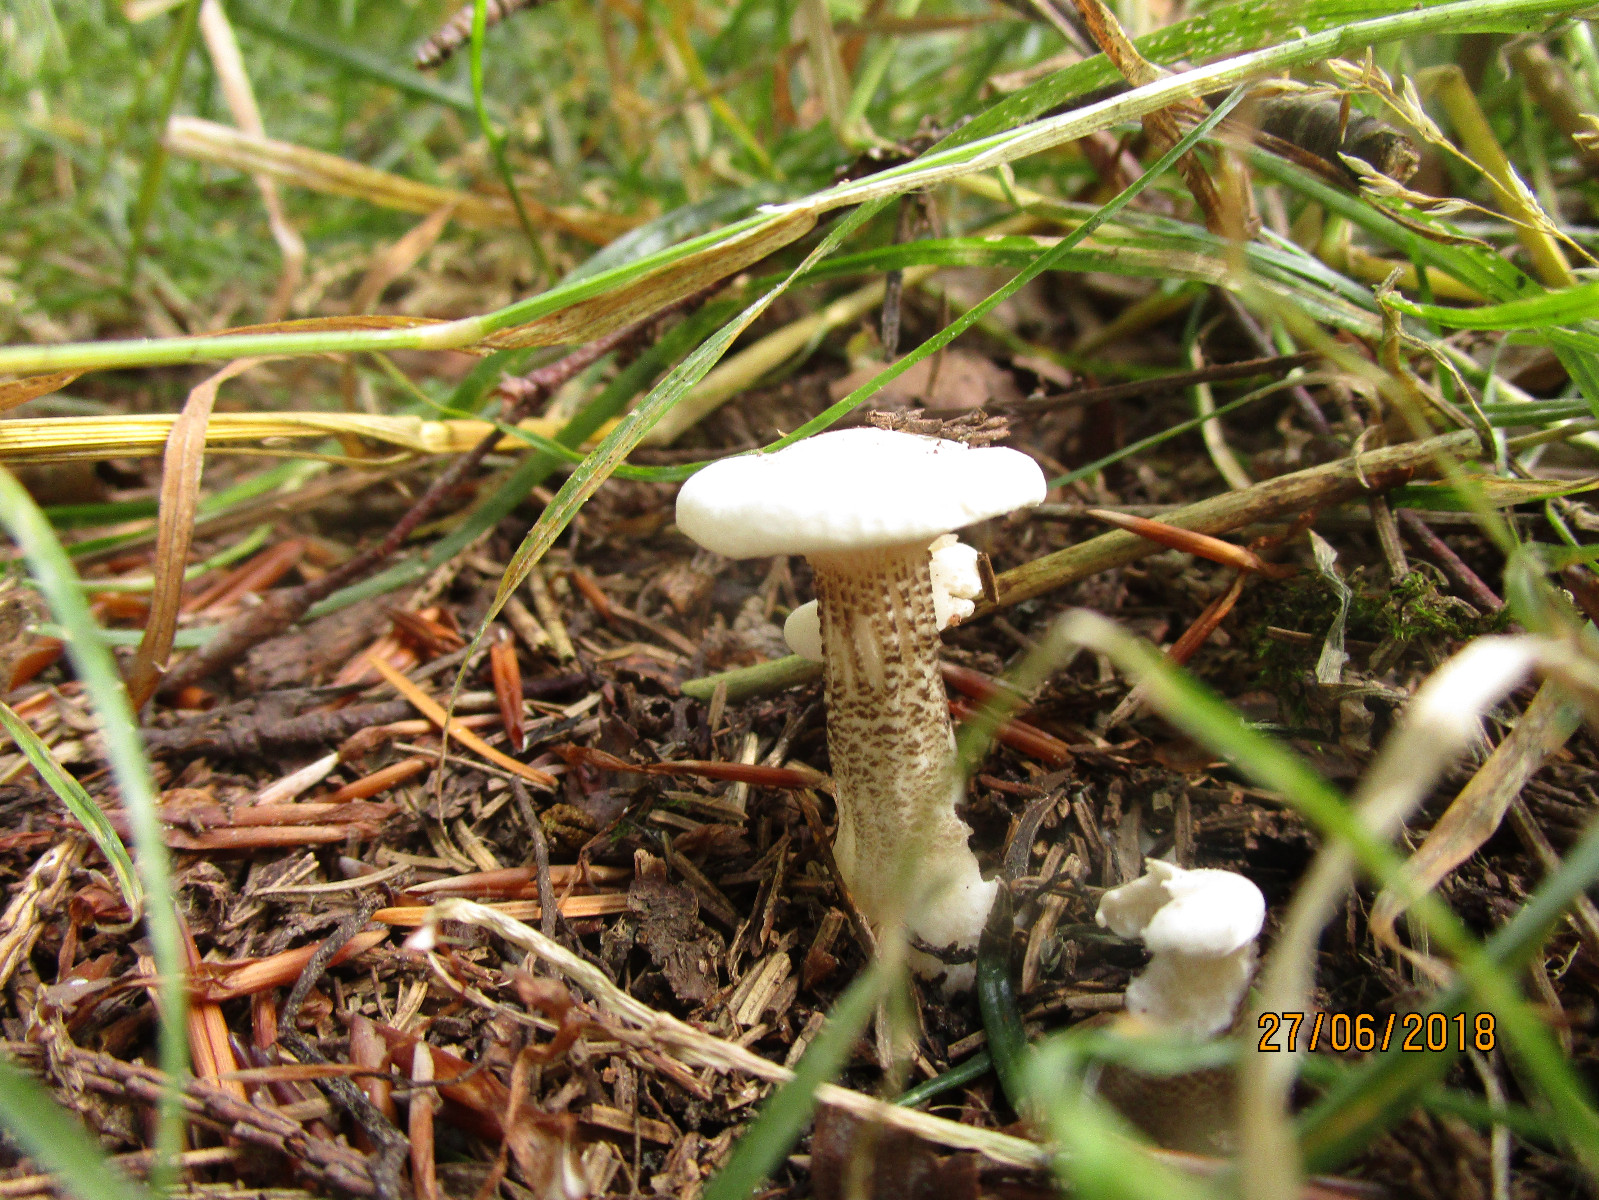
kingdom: Fungi
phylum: Basidiomycota
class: Agaricomycetes
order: Agaricales
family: Tricholomataceae
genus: Melanoleuca
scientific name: Melanoleuca verrucipes
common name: rufodet munkehat
